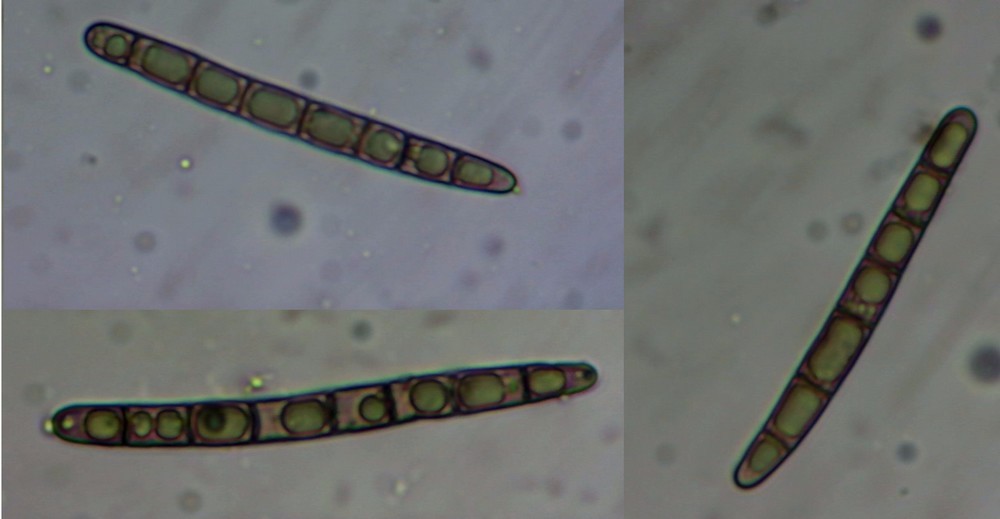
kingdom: Fungi
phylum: Ascomycota
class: Geoglossomycetes
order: Geoglossales
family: Geoglossaceae
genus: Hemileucoglossum
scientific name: Hemileucoglossum elongatum
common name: småsporet jordtunge
